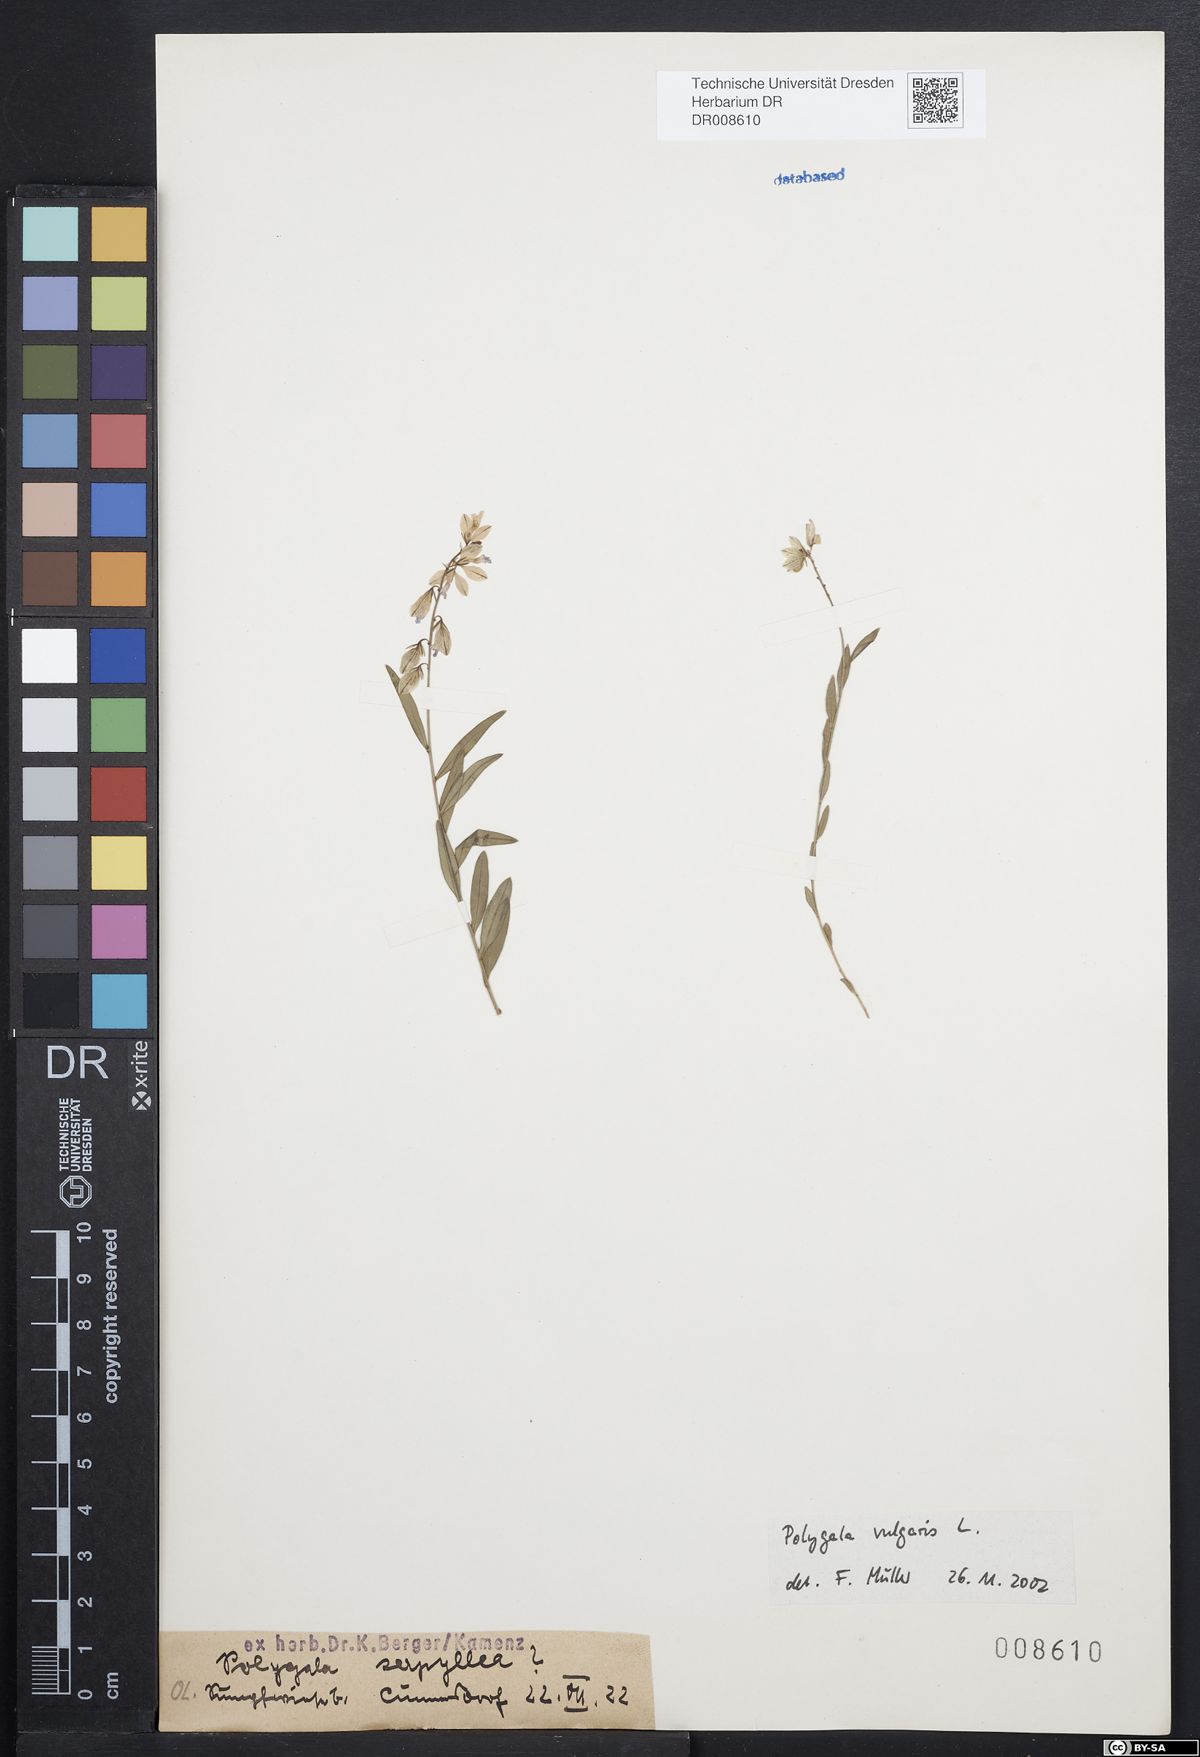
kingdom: Plantae
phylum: Tracheophyta
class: Magnoliopsida
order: Fabales
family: Polygalaceae
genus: Polygala
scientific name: Polygala vulgaris
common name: Common milkwort
